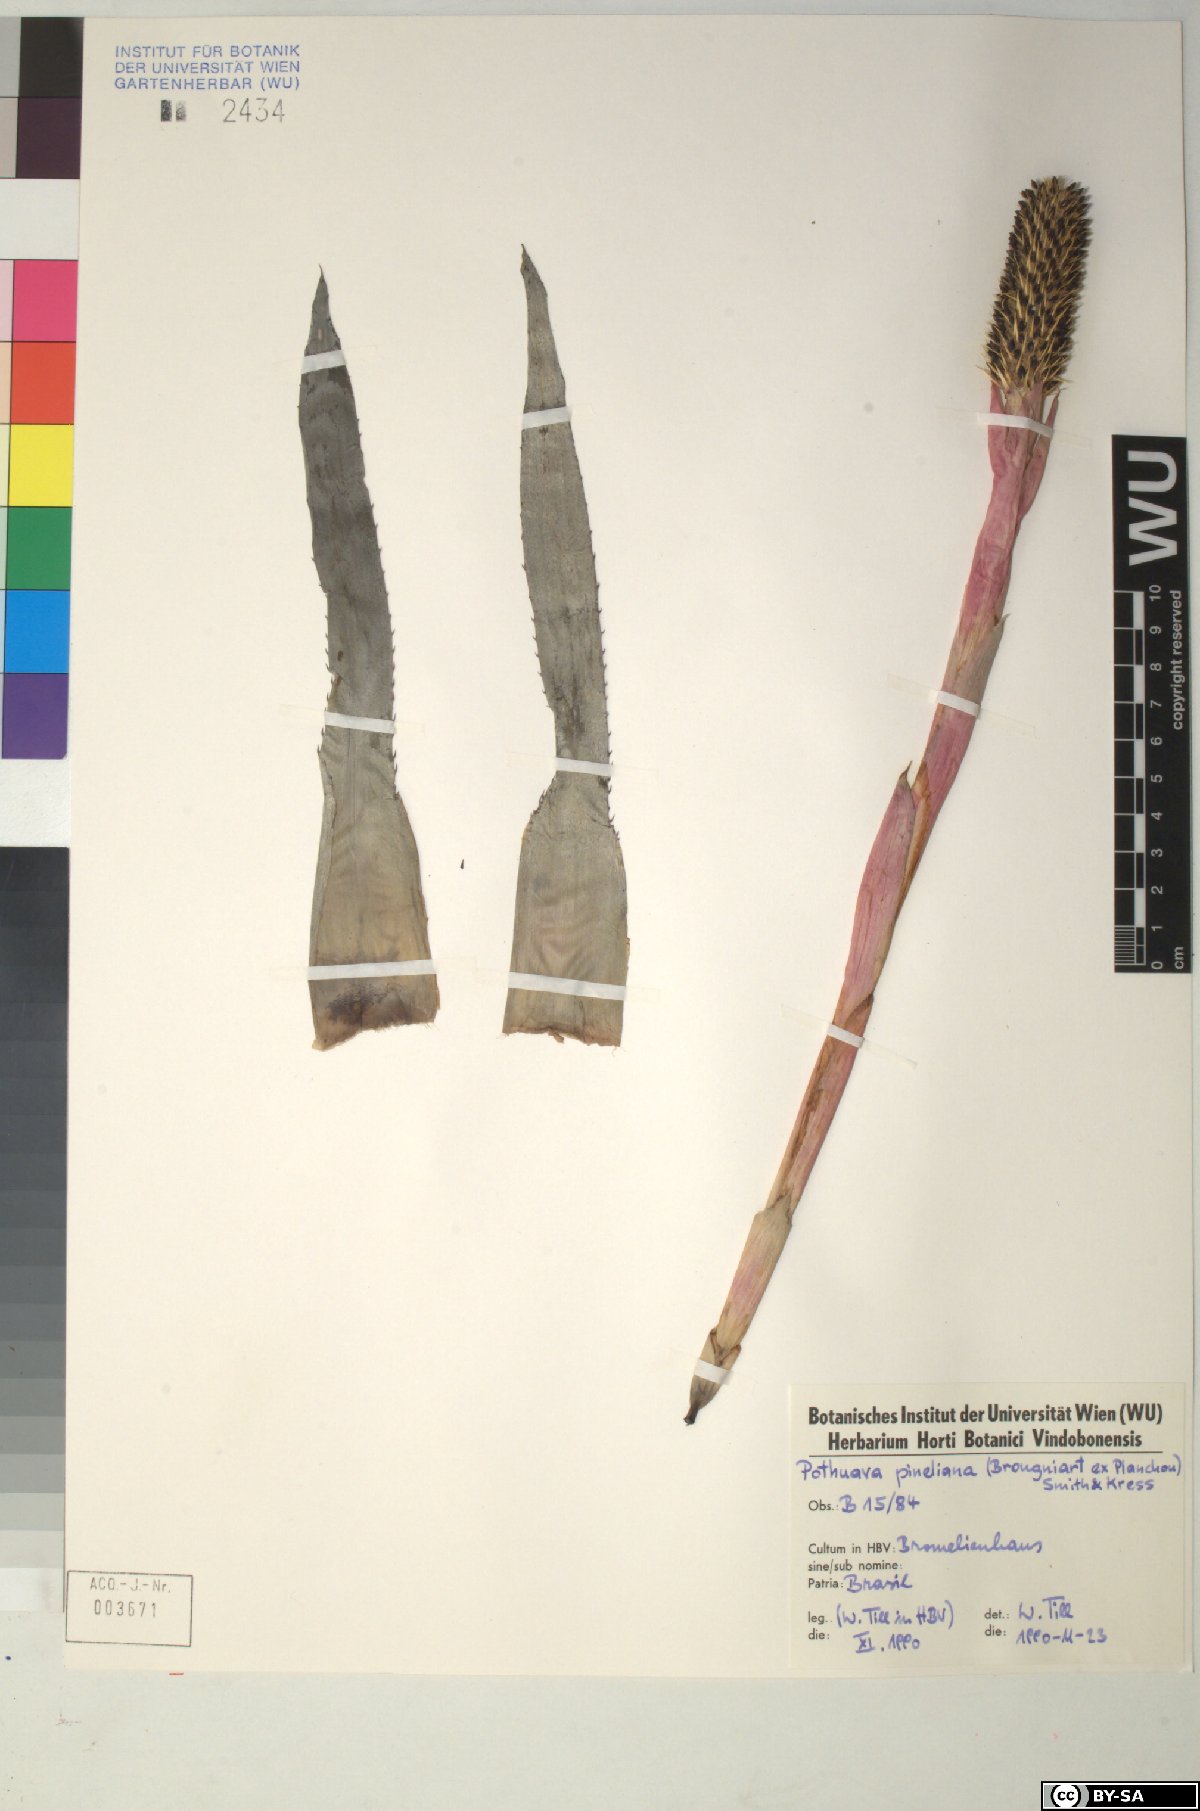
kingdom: Plantae
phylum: Tracheophyta
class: Liliopsida
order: Poales
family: Bromeliaceae
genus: Aechmea
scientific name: Aechmea
